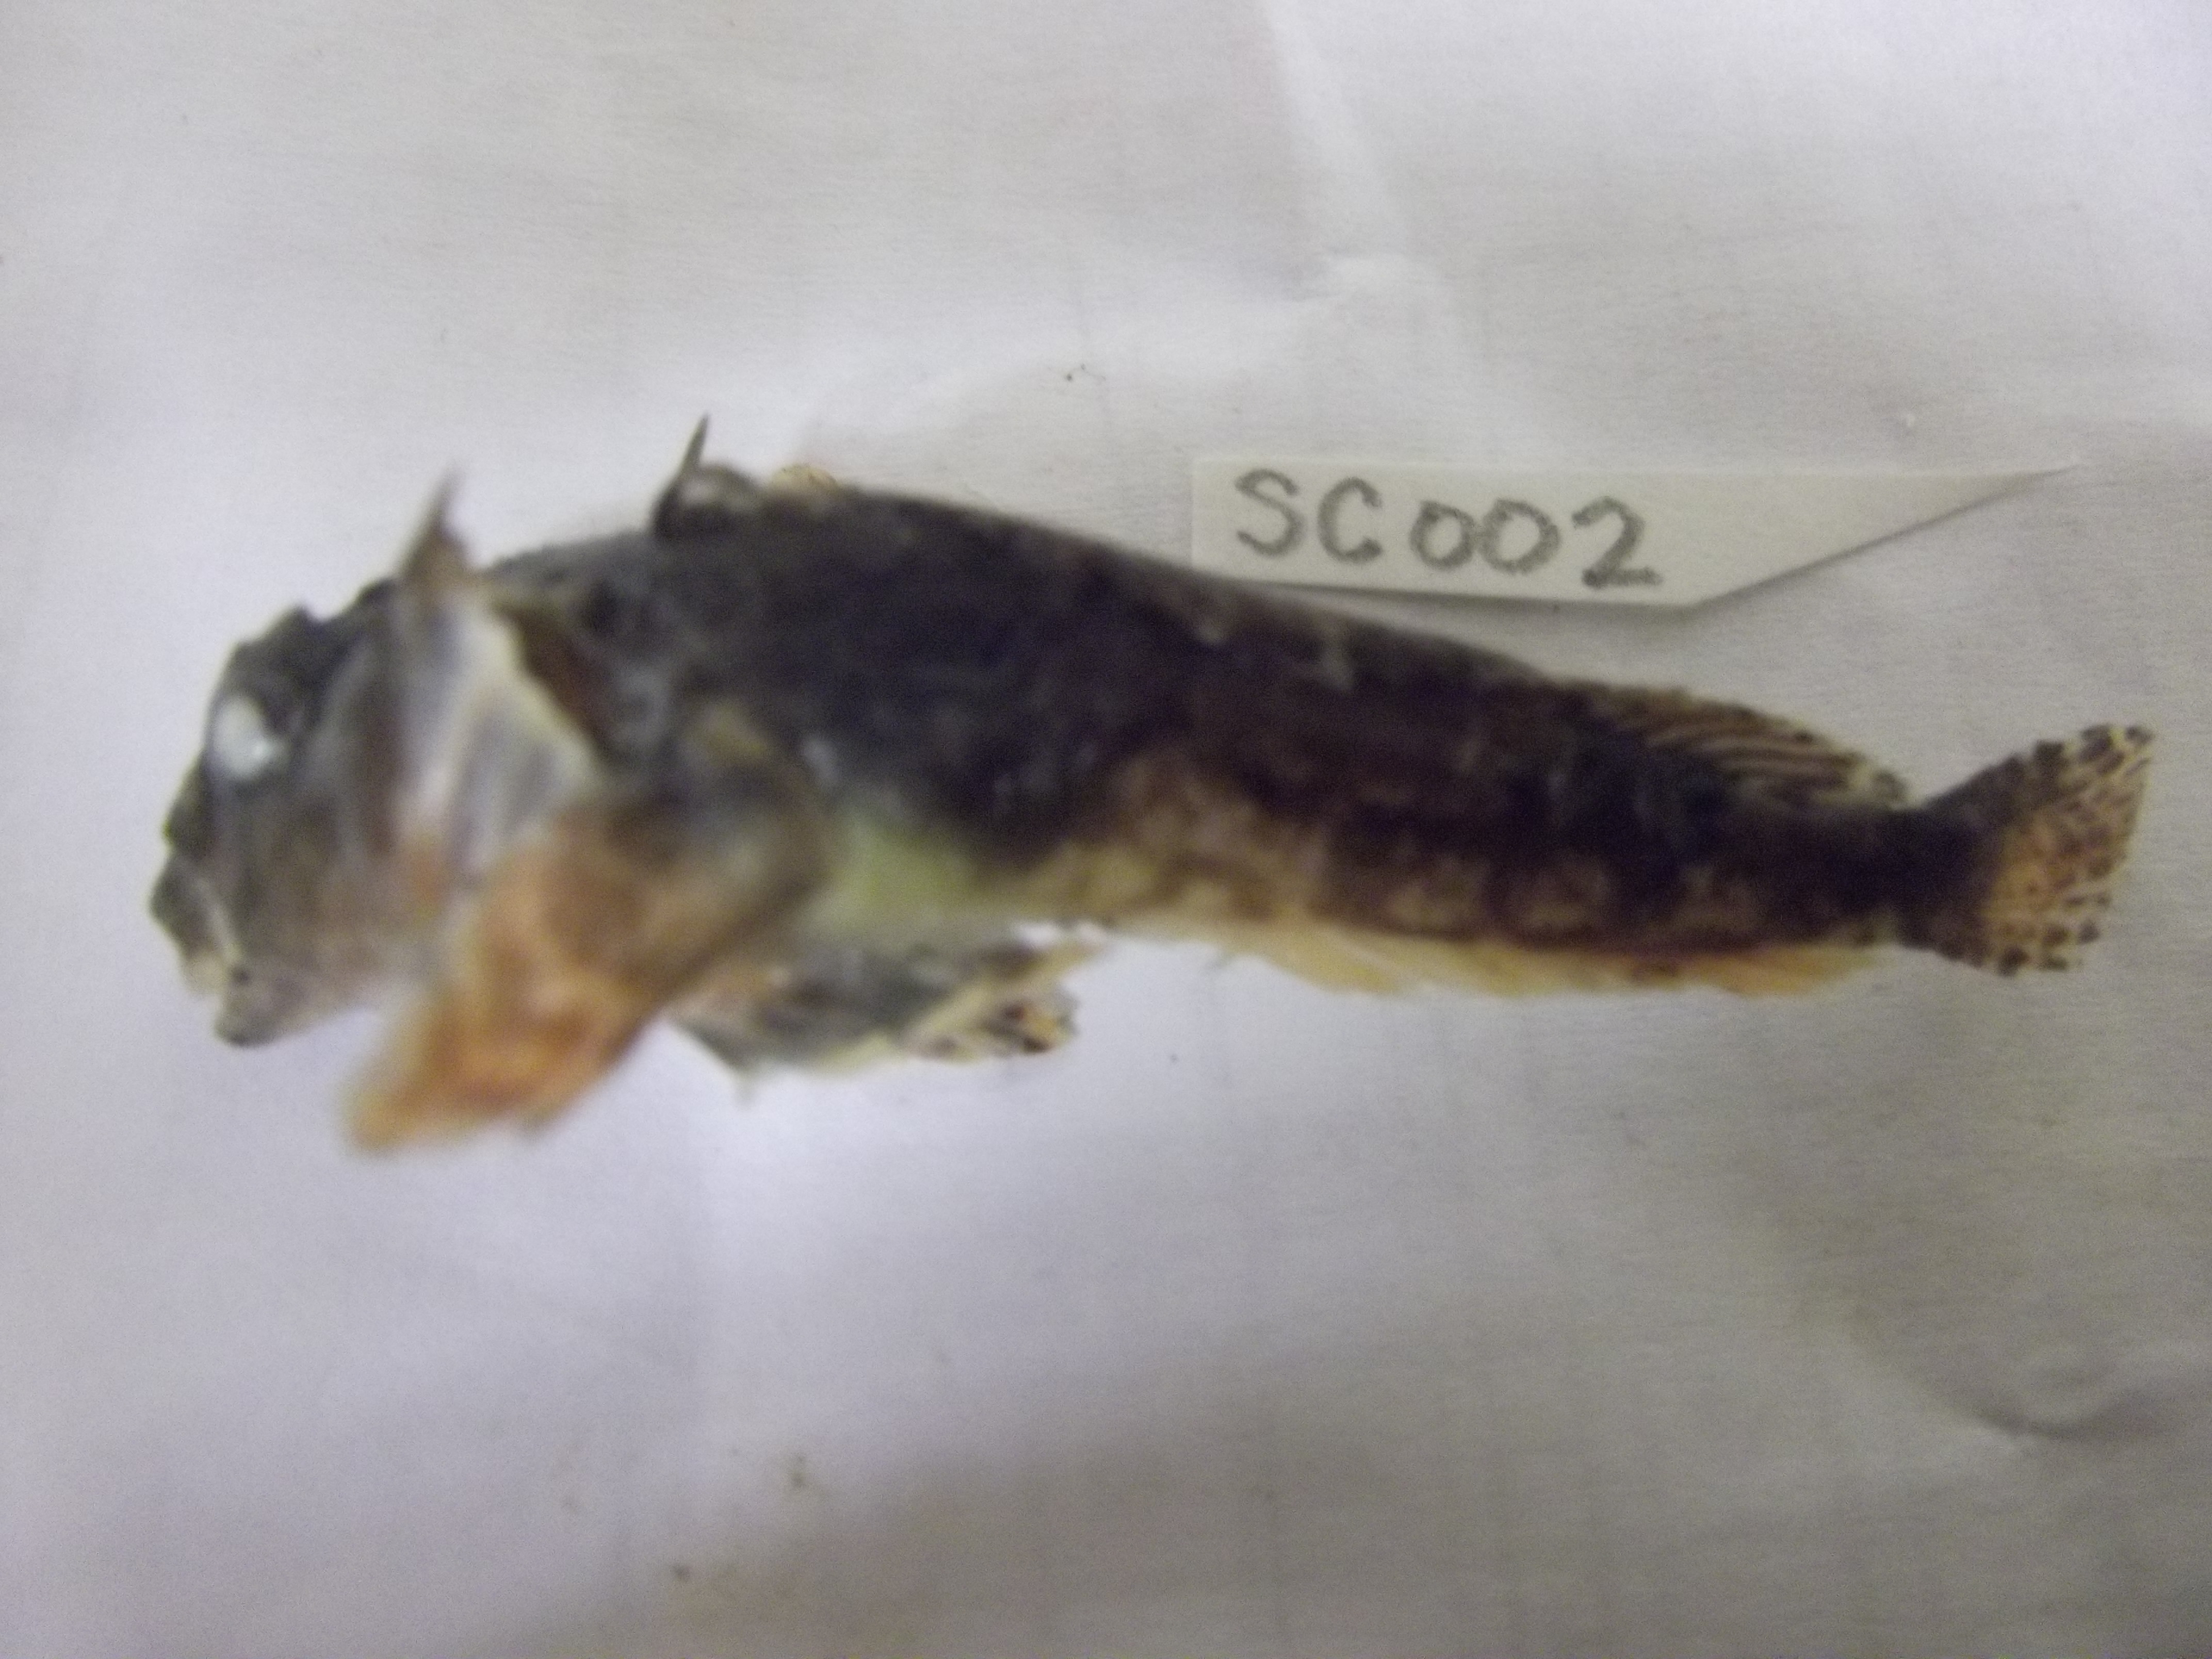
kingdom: Animalia
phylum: Chordata
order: Perciformes
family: Harpagiferidae
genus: Harpagifer
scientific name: Harpagifer georgianus
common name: South georgia spiny plunderfish
